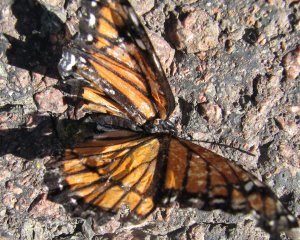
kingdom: Animalia
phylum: Arthropoda
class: Insecta
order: Lepidoptera
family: Nymphalidae
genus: Limenitis
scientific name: Limenitis archippus
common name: Viceroy
